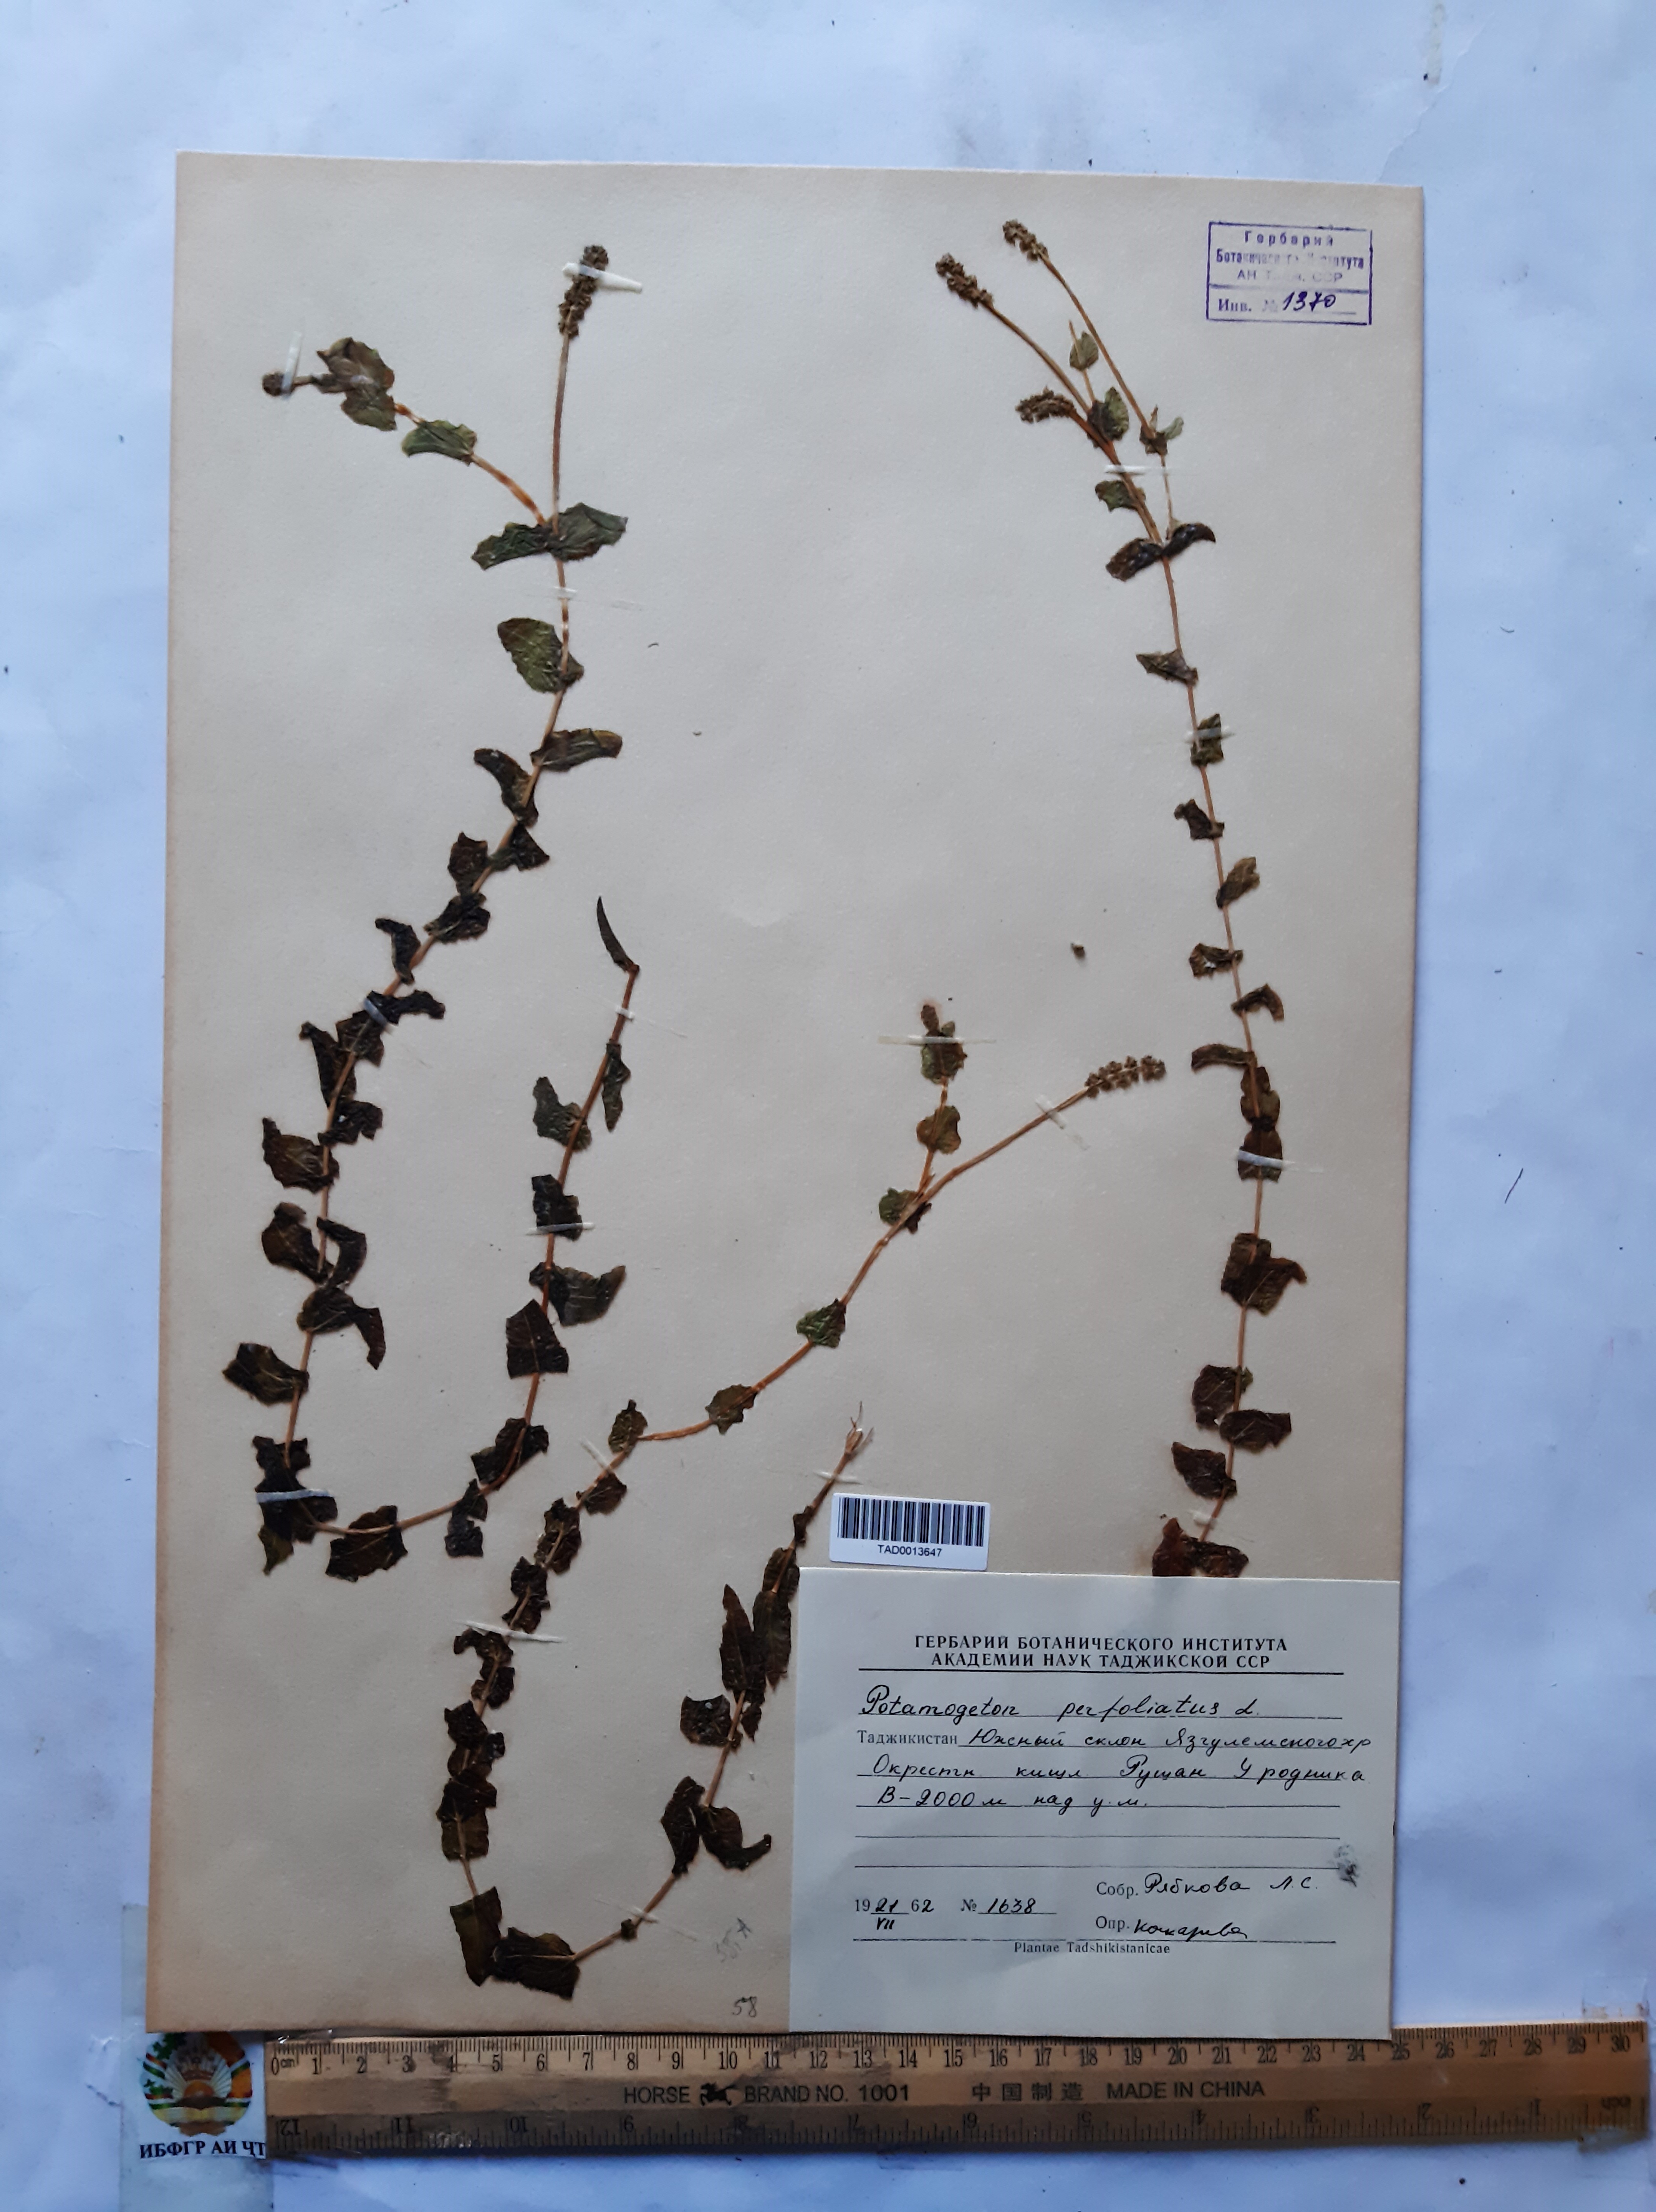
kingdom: Plantae
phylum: Tracheophyta
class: Liliopsida
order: Alismatales
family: Potamogetonaceae
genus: Potamogeton
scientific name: Potamogeton perfoliatus
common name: Perfoliate pondweed
